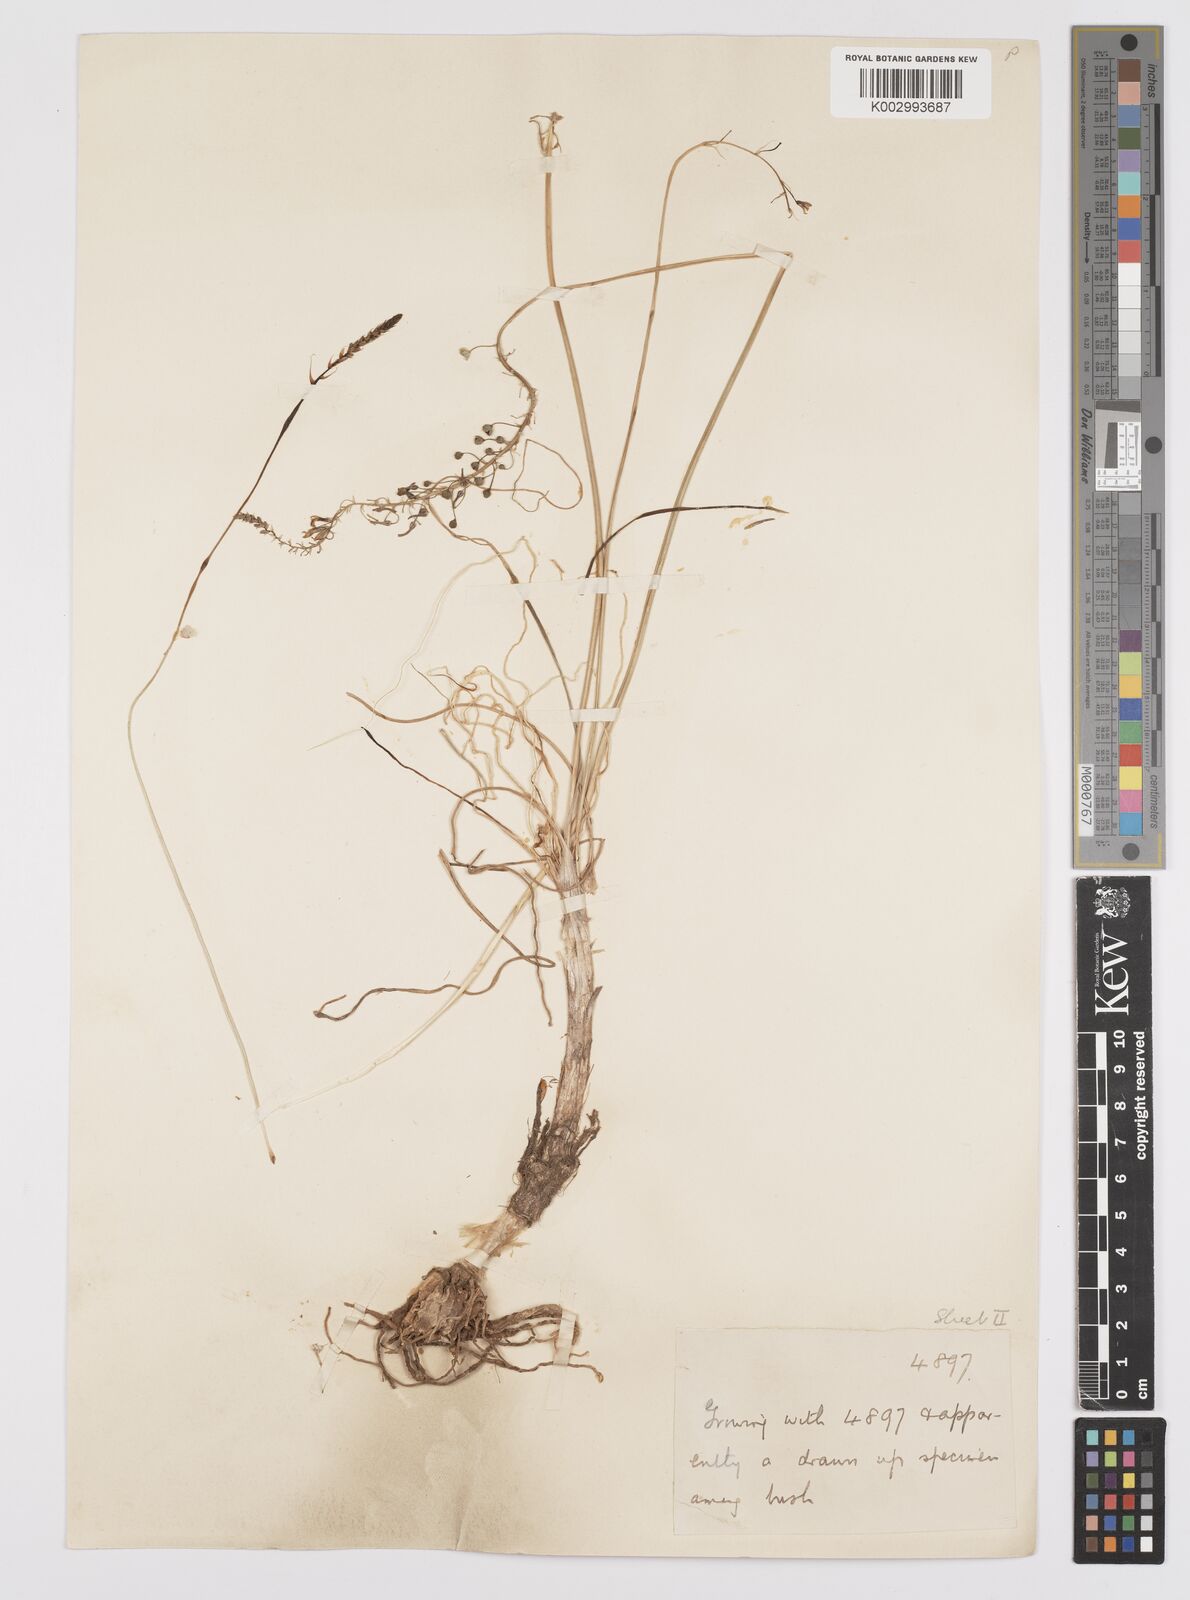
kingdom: Plantae
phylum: Tracheophyta
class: Liliopsida
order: Asparagales
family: Asphodelaceae
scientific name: Asphodelaceae
